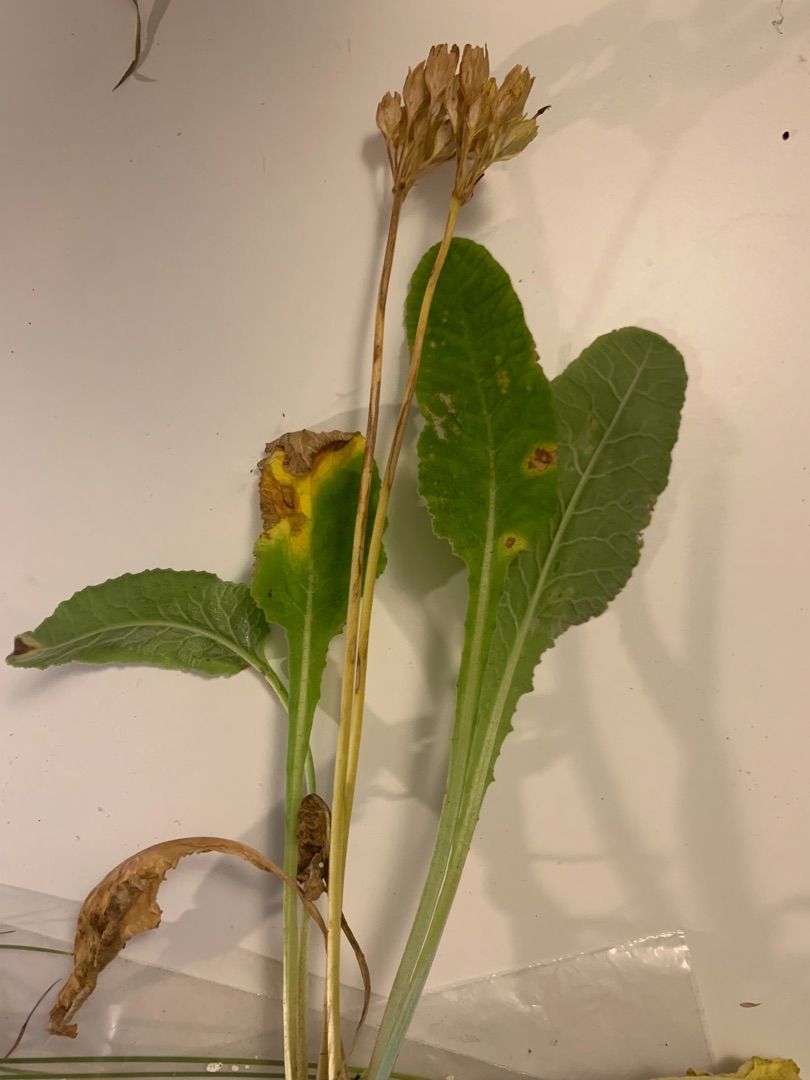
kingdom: Plantae
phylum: Tracheophyta
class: Magnoliopsida
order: Ericales
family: Primulaceae
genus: Primula
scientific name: Primula veris
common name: Hulkravet kodriver
